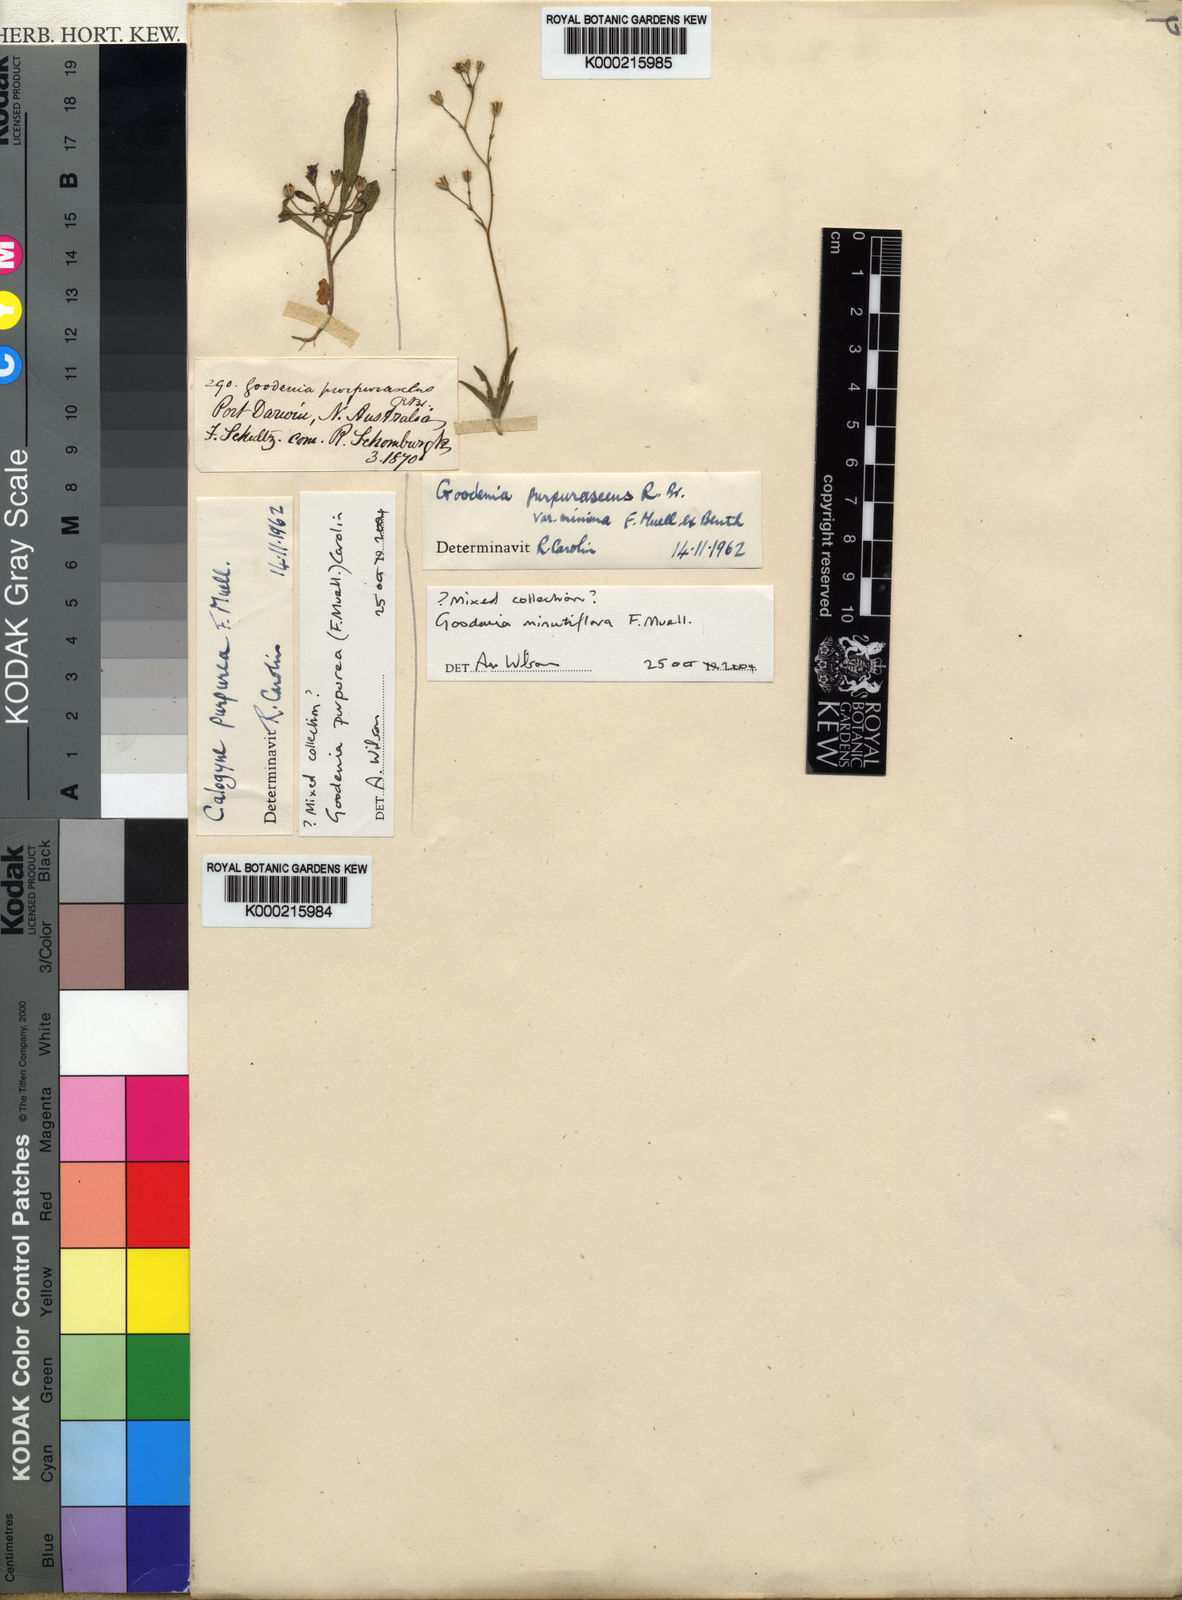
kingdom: Plantae
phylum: Tracheophyta
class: Magnoliopsida
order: Asterales
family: Goodeniaceae
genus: Goodenia
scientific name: Goodenia minutiflora
